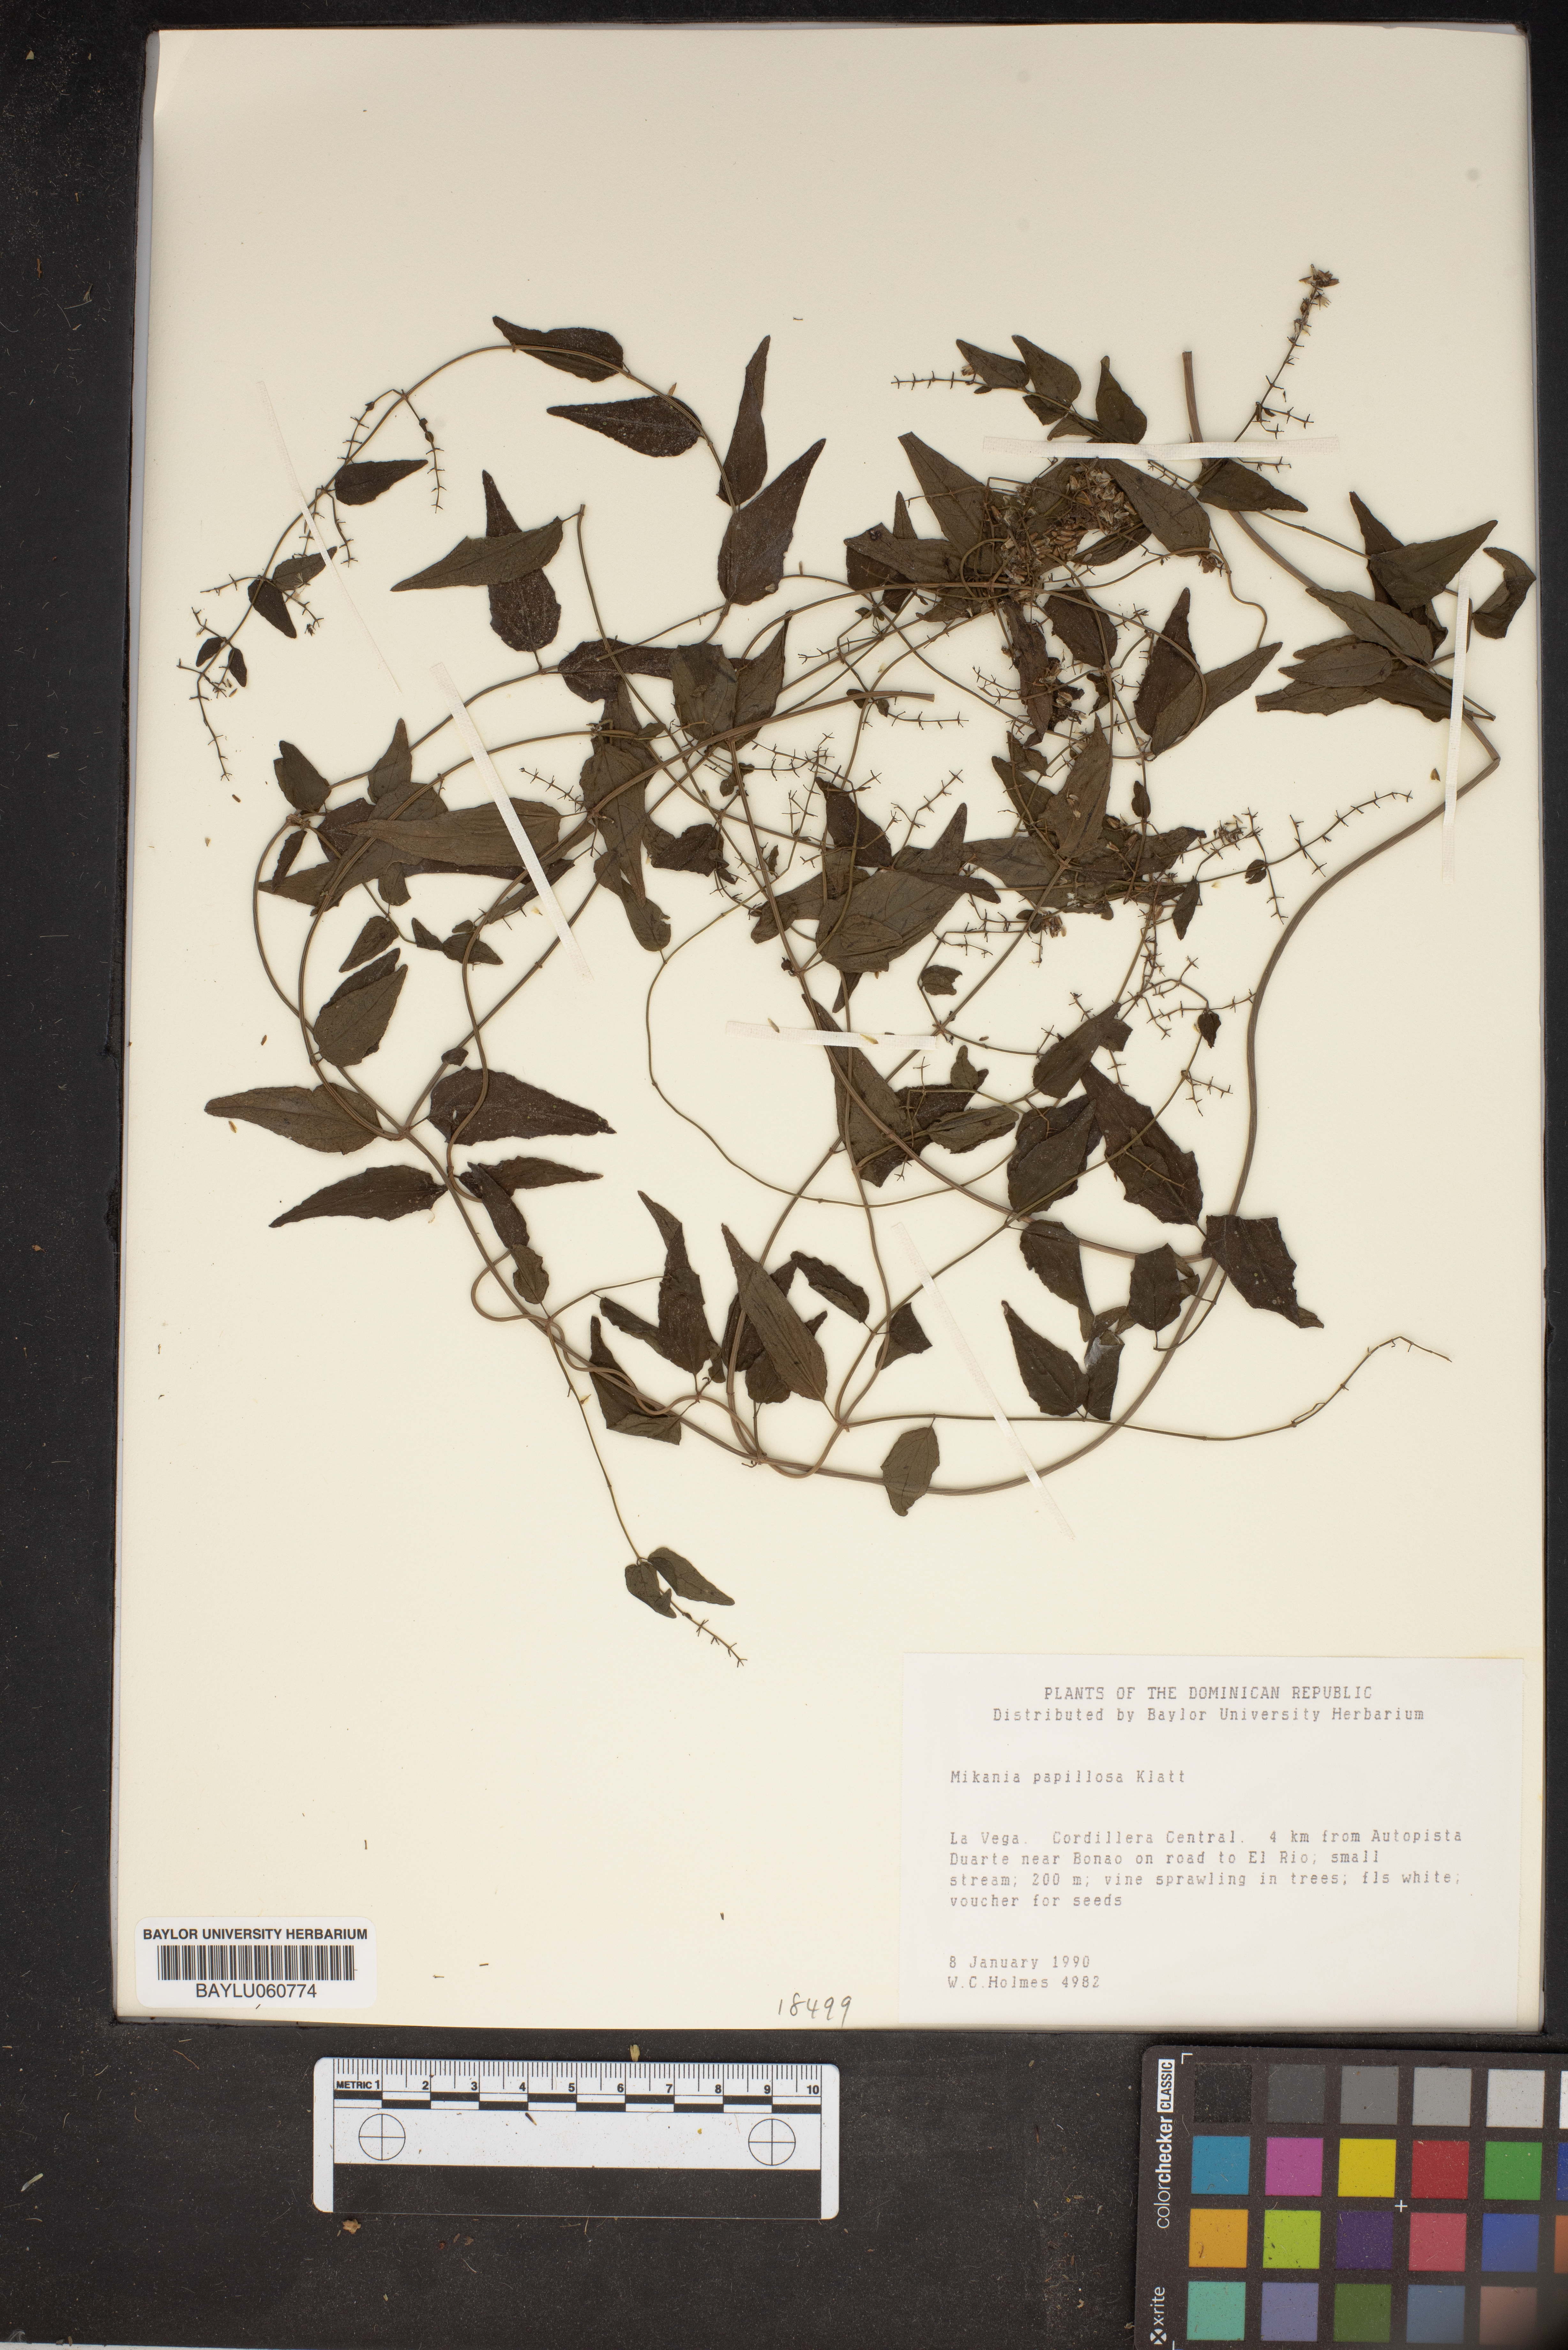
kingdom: Plantae
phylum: Tracheophyta
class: Magnoliopsida
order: Asterales
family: Asteraceae
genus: Mikania
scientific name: Mikania papillosa
